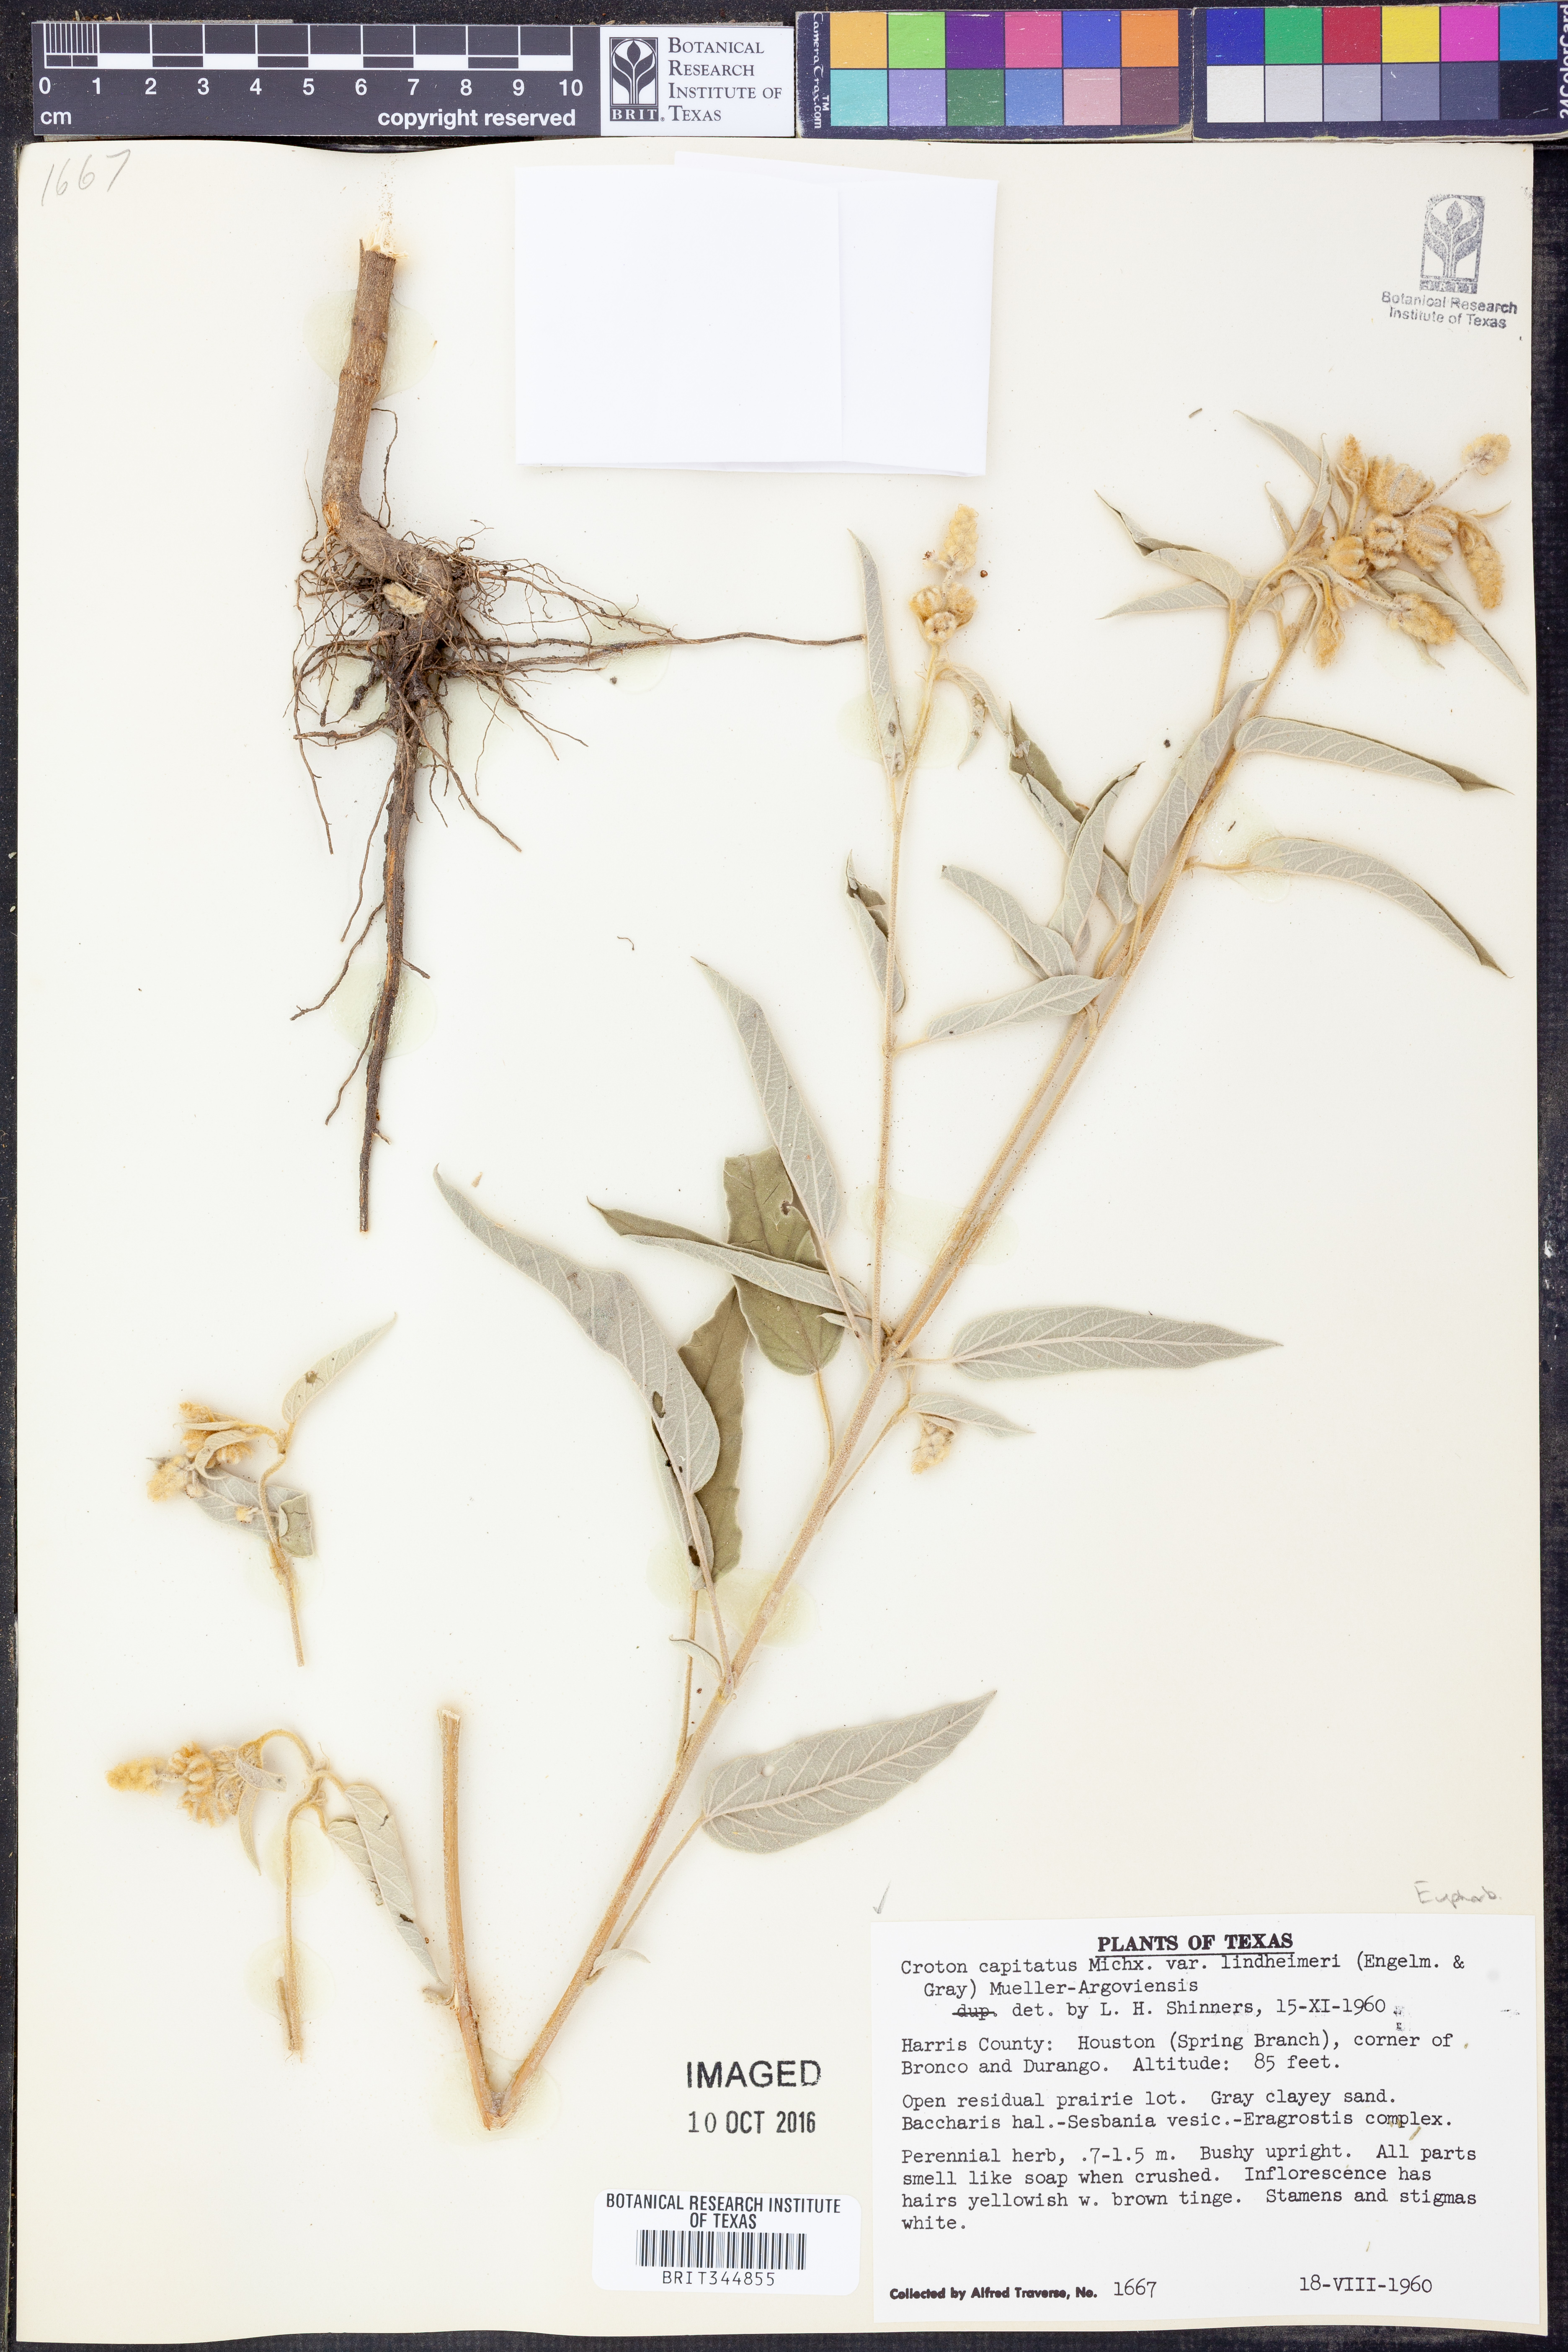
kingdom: Plantae
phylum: Tracheophyta
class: Magnoliopsida
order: Malpighiales
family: Euphorbiaceae
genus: Croton
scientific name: Croton lindheimeri
